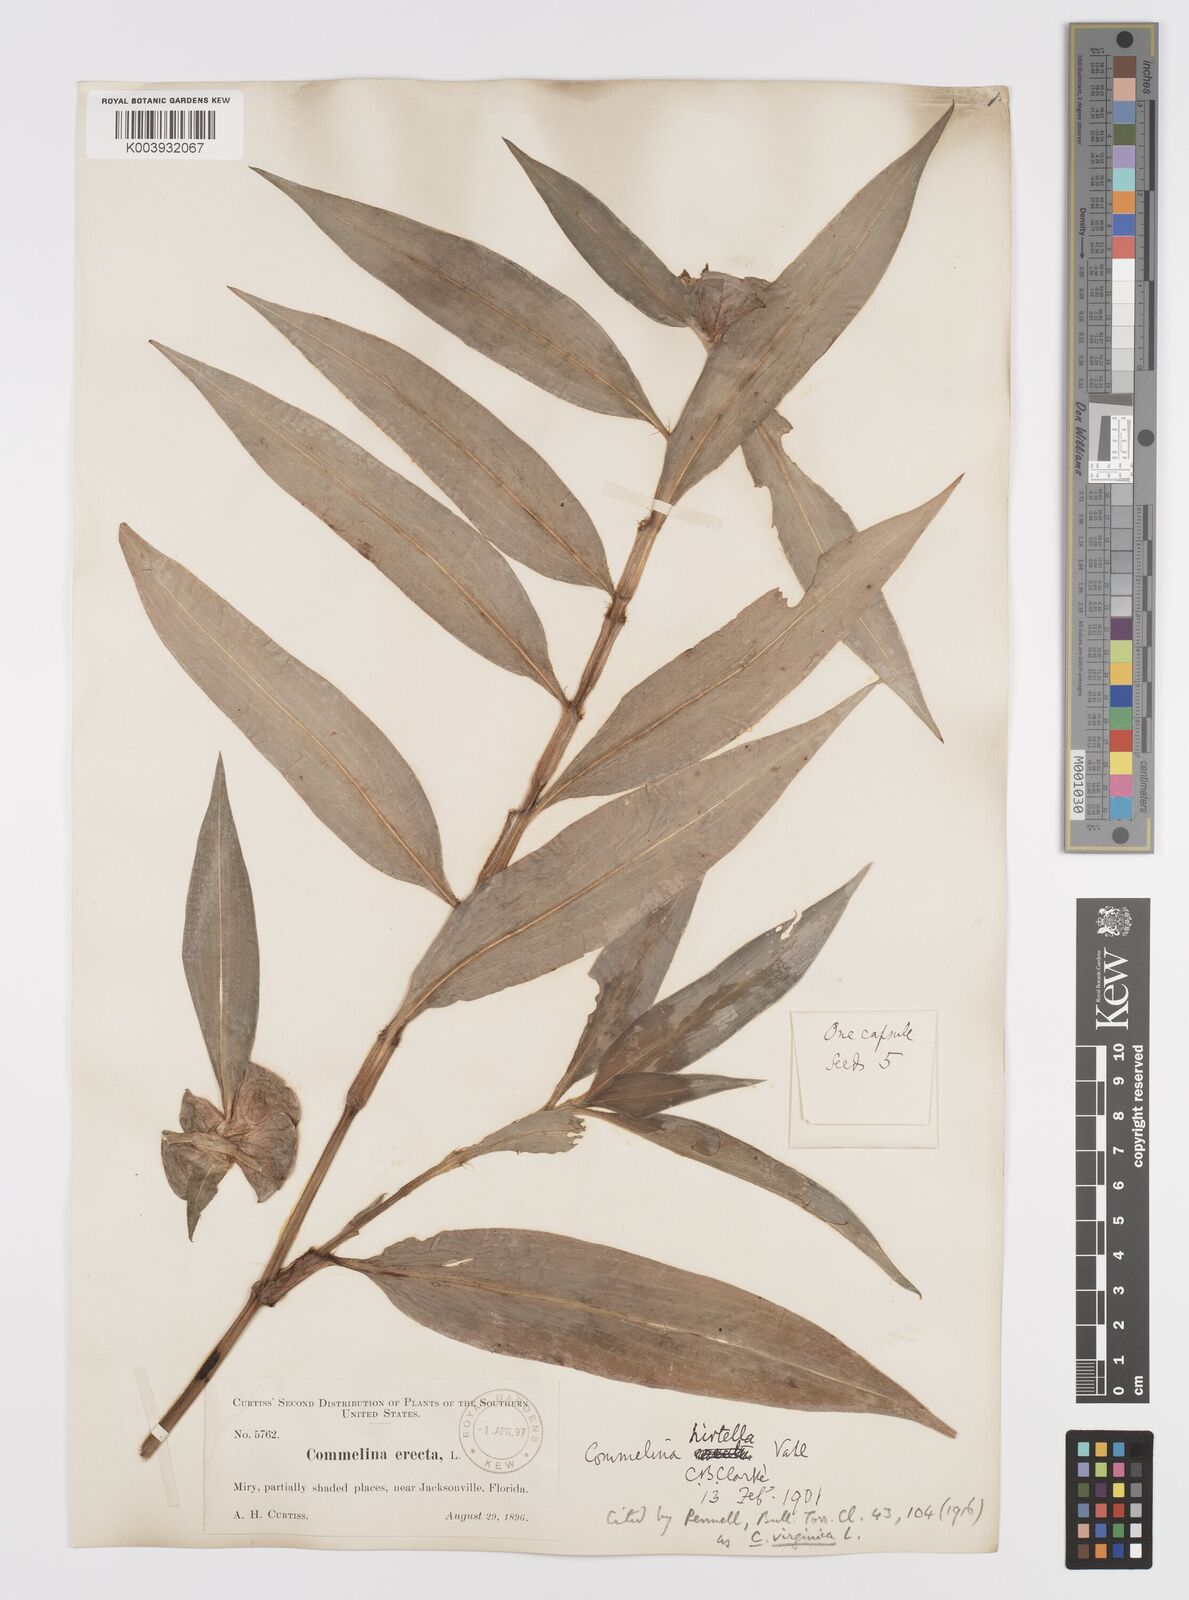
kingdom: Plantae
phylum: Tracheophyta
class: Liliopsida
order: Commelinales
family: Commelinaceae
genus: Commelina
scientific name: Commelina virginica
